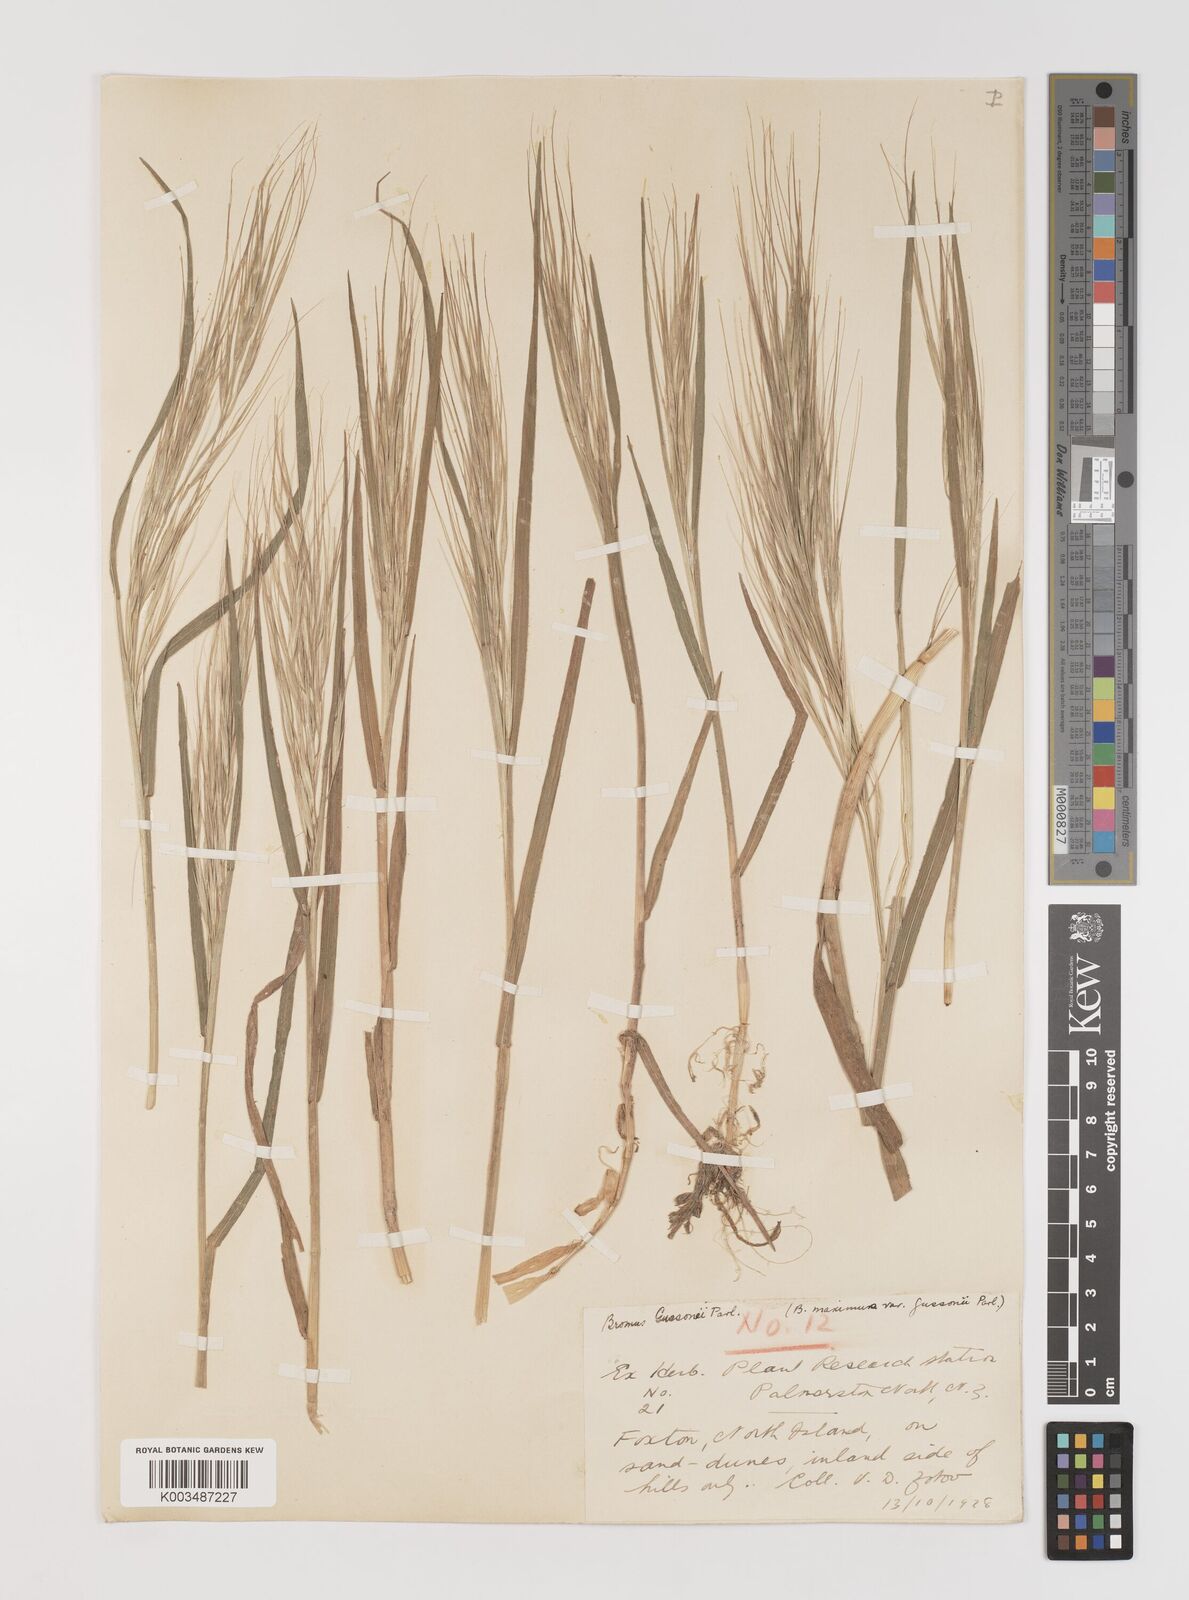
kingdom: Plantae
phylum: Tracheophyta
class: Liliopsida
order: Poales
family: Poaceae
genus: Bromus
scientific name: Bromus diandrus
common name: Ripgut brome
